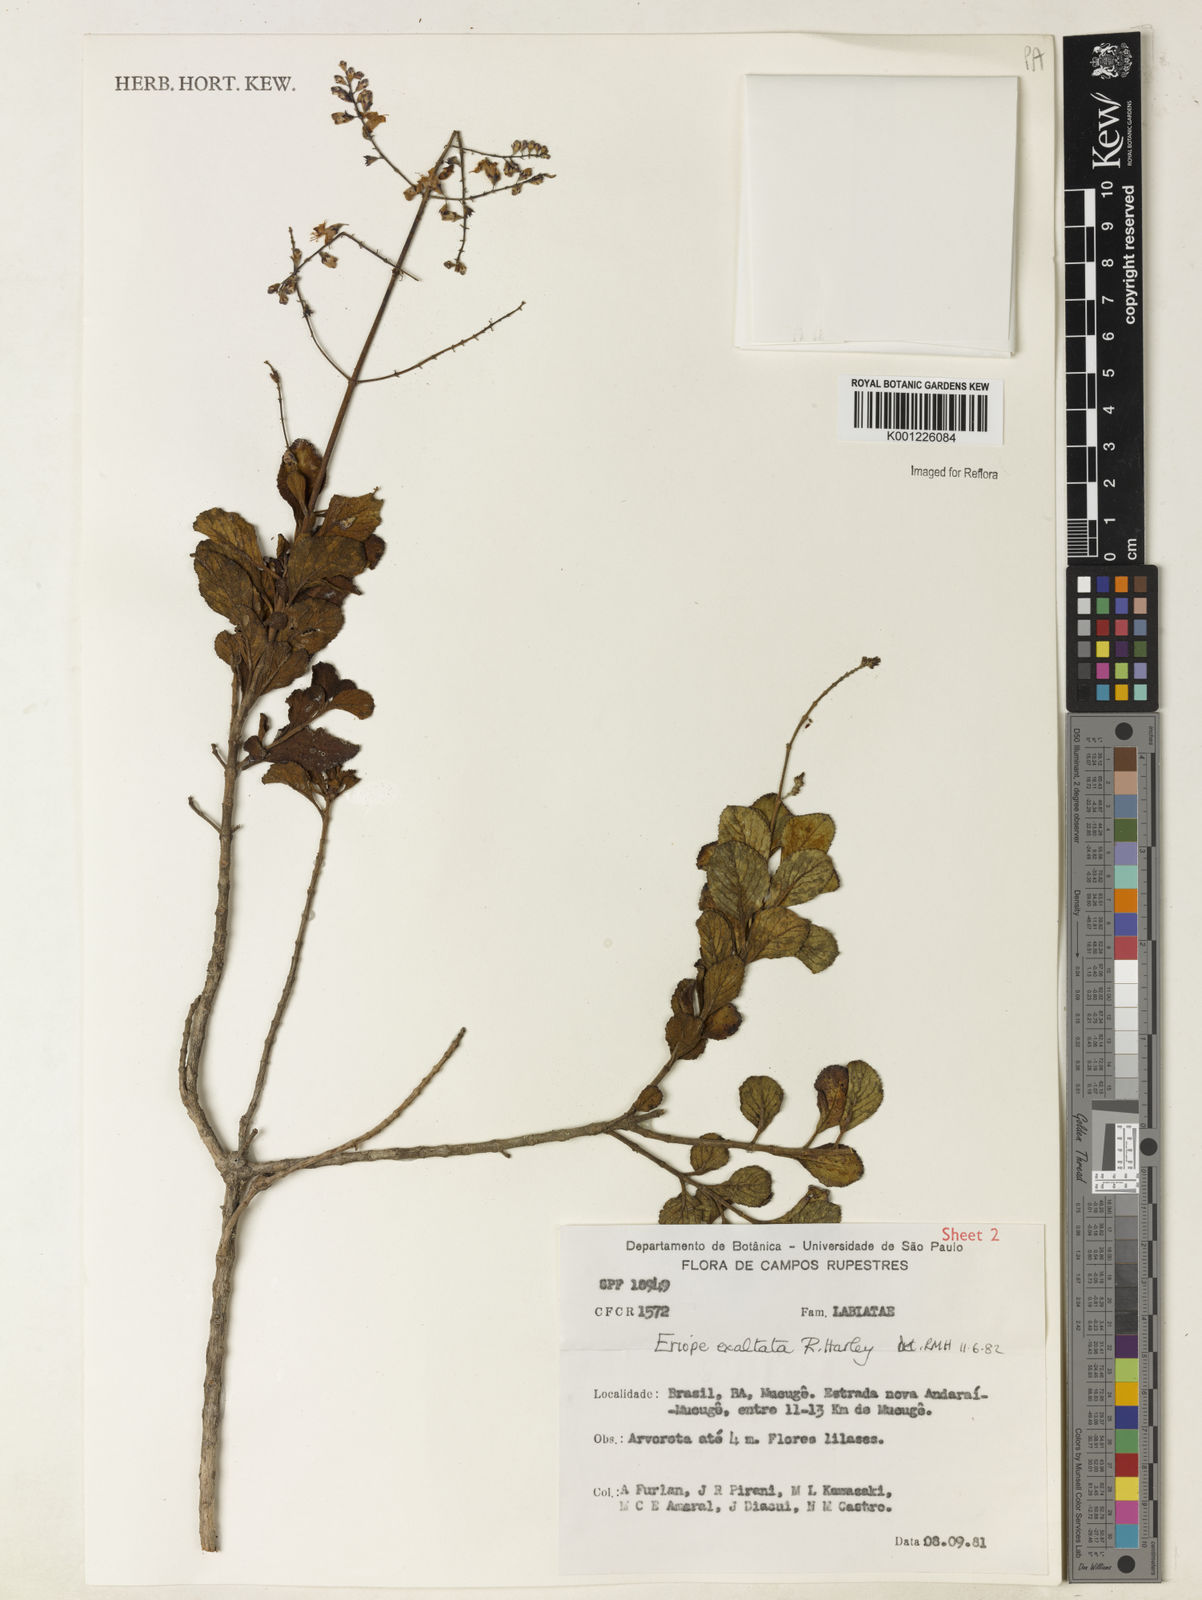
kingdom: Plantae
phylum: Tracheophyta
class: Magnoliopsida
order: Lamiales
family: Lamiaceae
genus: Eriope
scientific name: Eriope exaltata
